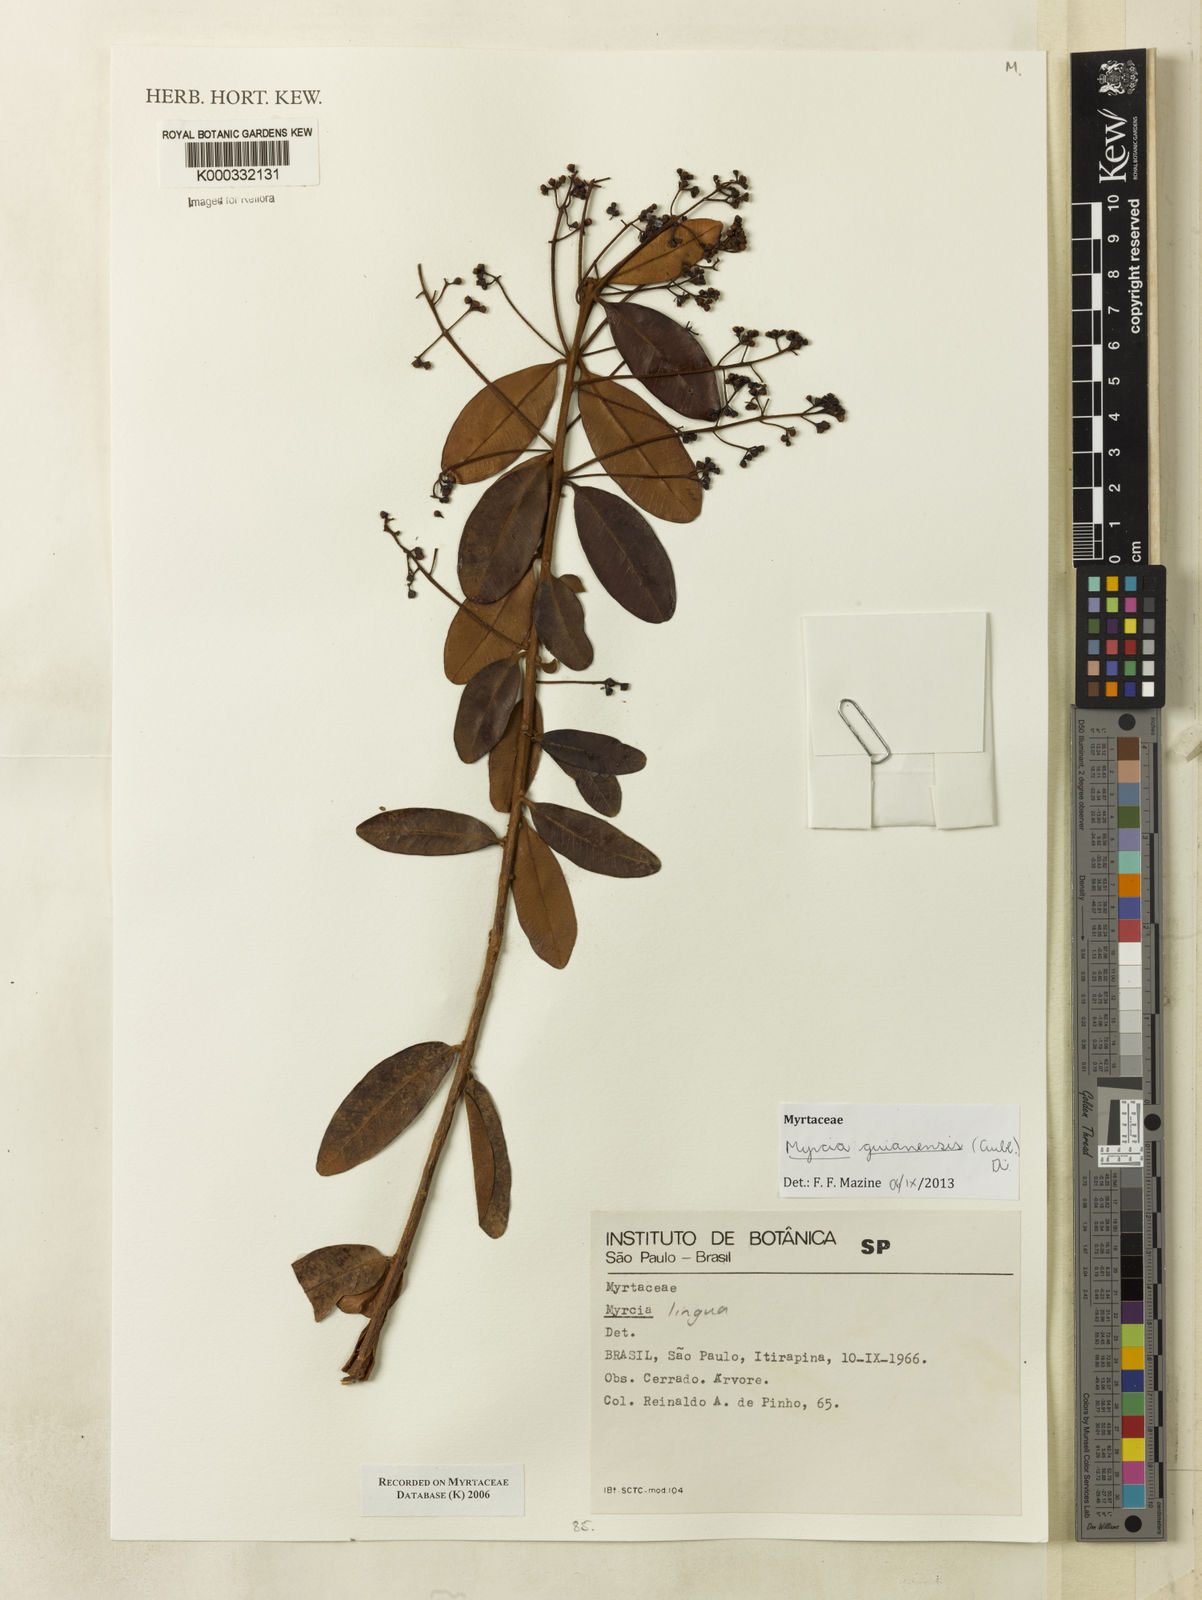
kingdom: Plantae
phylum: Tracheophyta
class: Magnoliopsida
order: Myrtales
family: Myrtaceae
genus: Myrcia
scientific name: Myrcia
